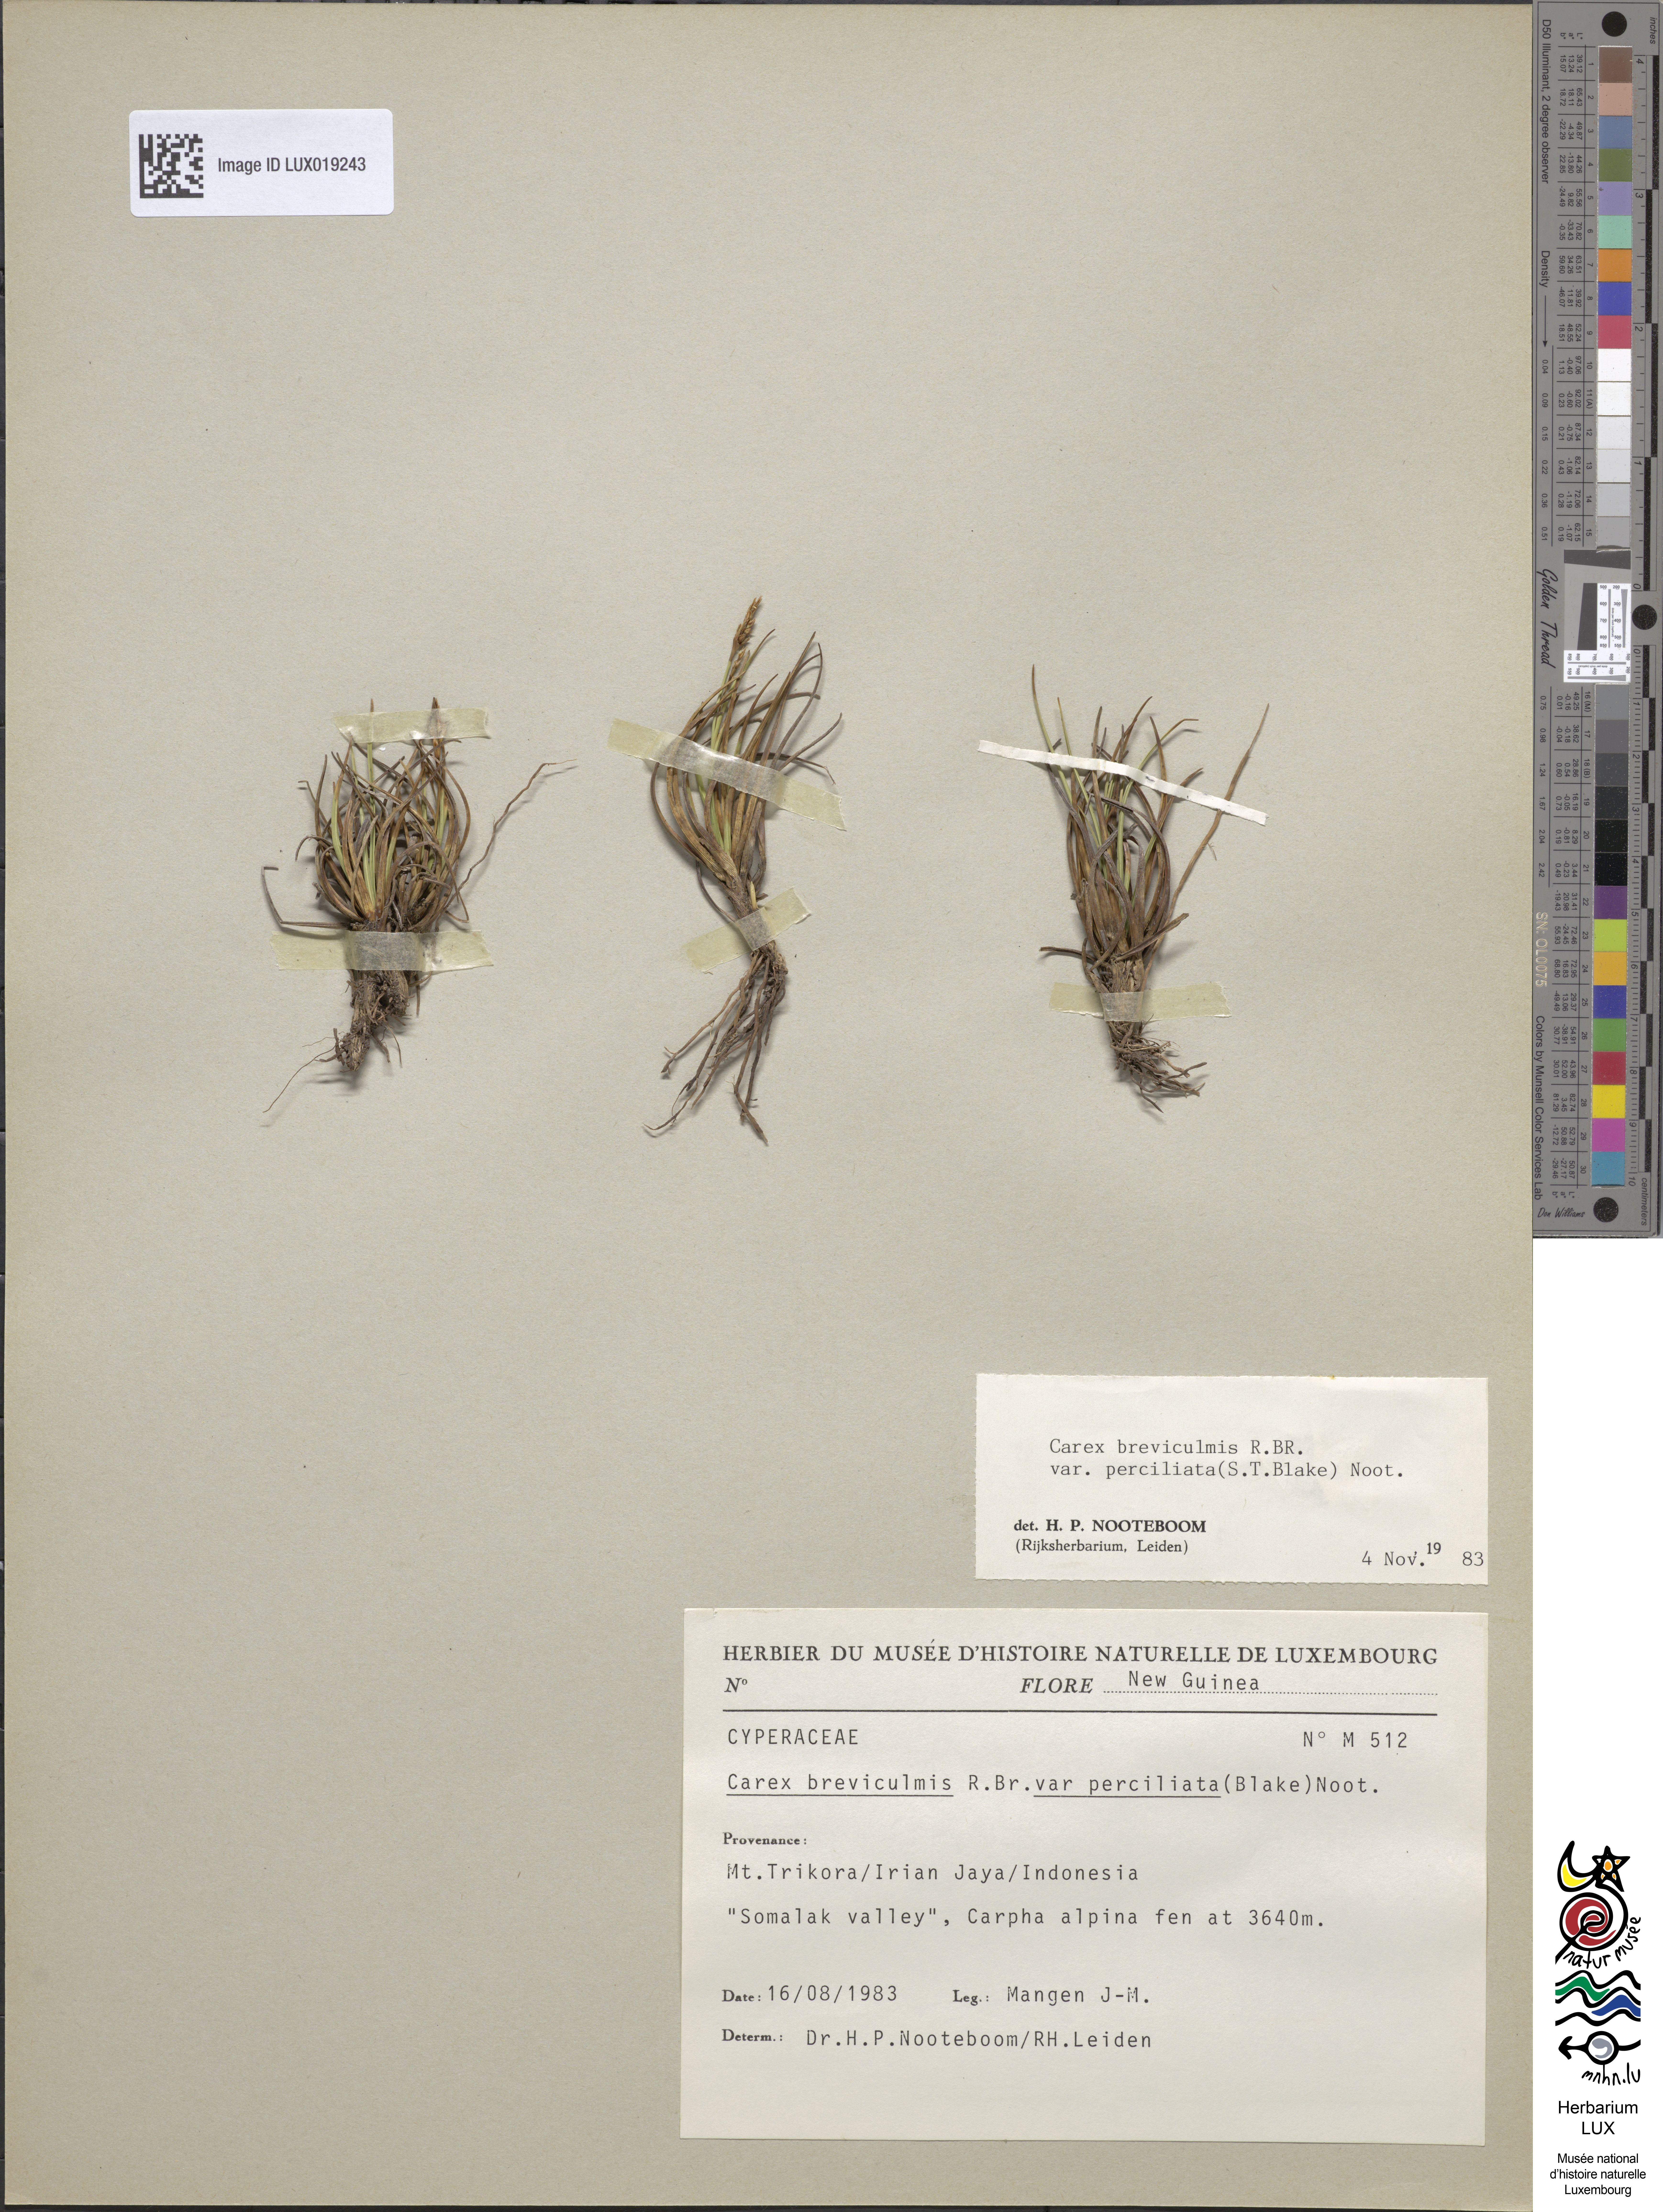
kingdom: Plantae
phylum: Tracheophyta
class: Liliopsida
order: Poales
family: Cyperaceae
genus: Carex
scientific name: Carex breviculmis
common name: Asian shortstem sedge
